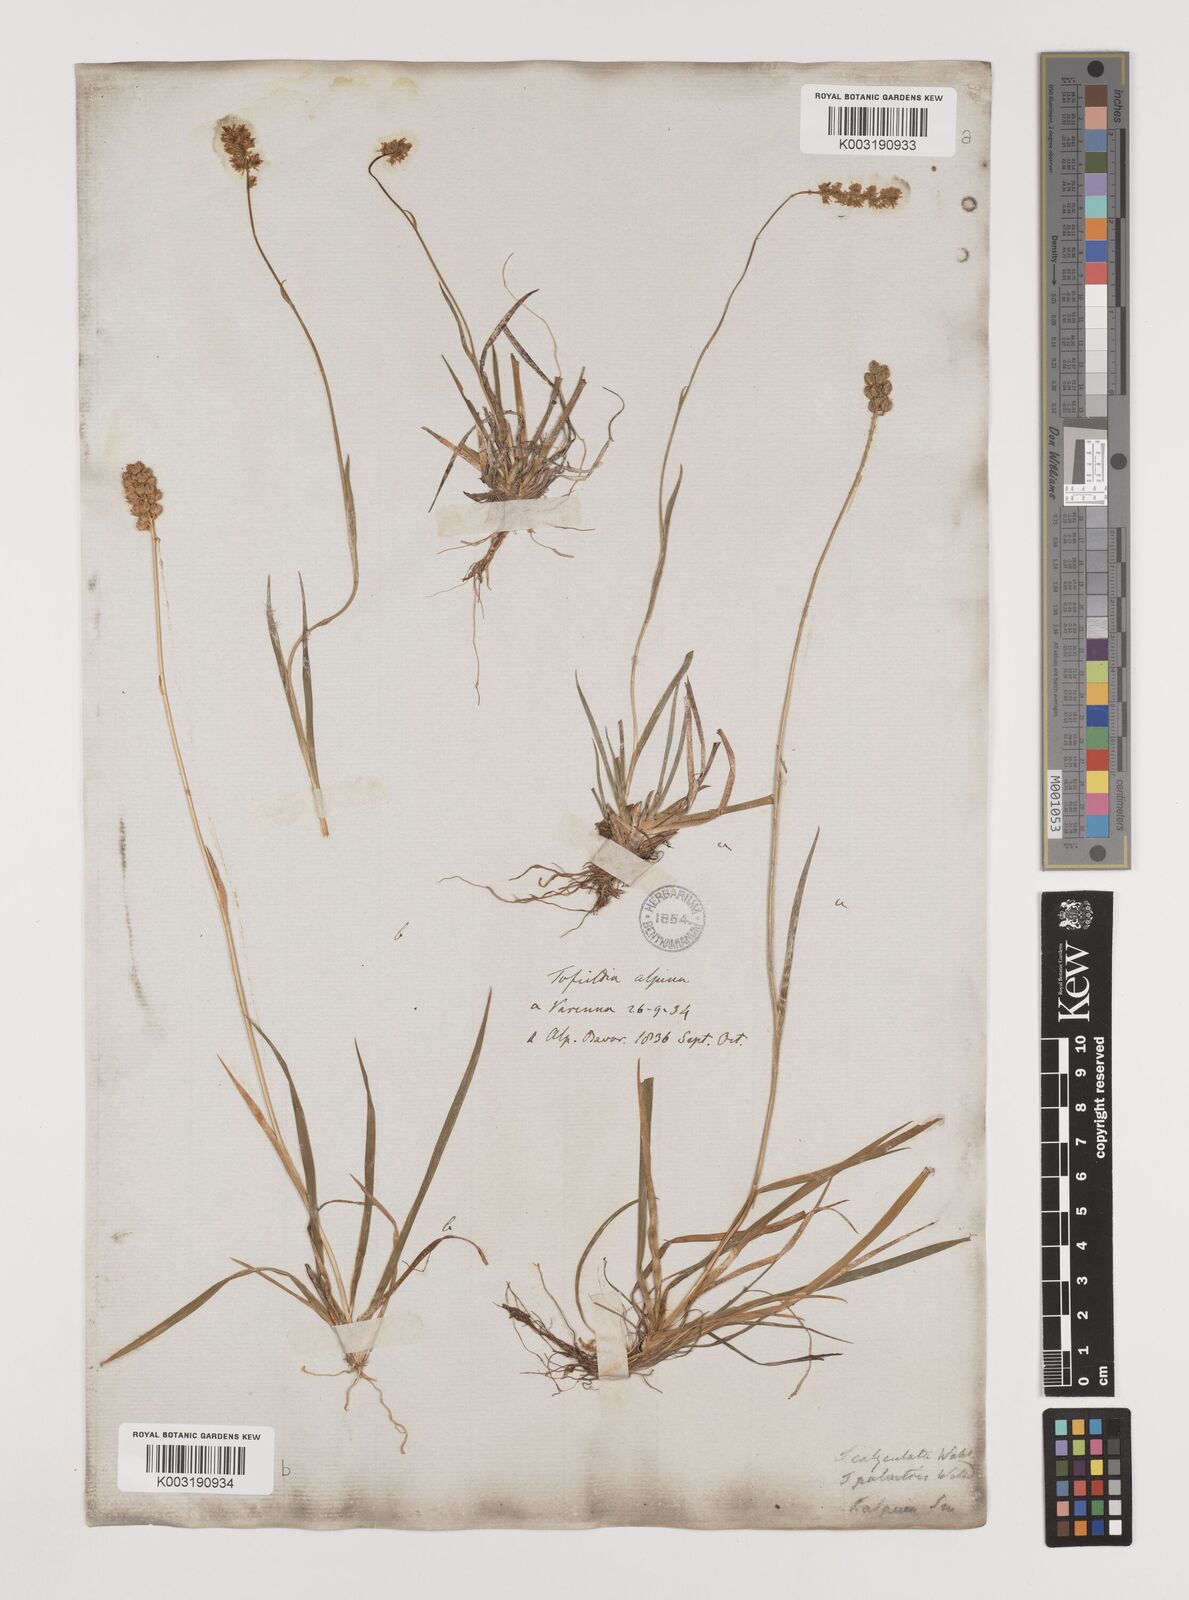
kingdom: Plantae
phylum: Tracheophyta
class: Liliopsida
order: Alismatales
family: Tofieldiaceae
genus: Tofieldia
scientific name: Tofieldia calyculata
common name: German-asphodel
